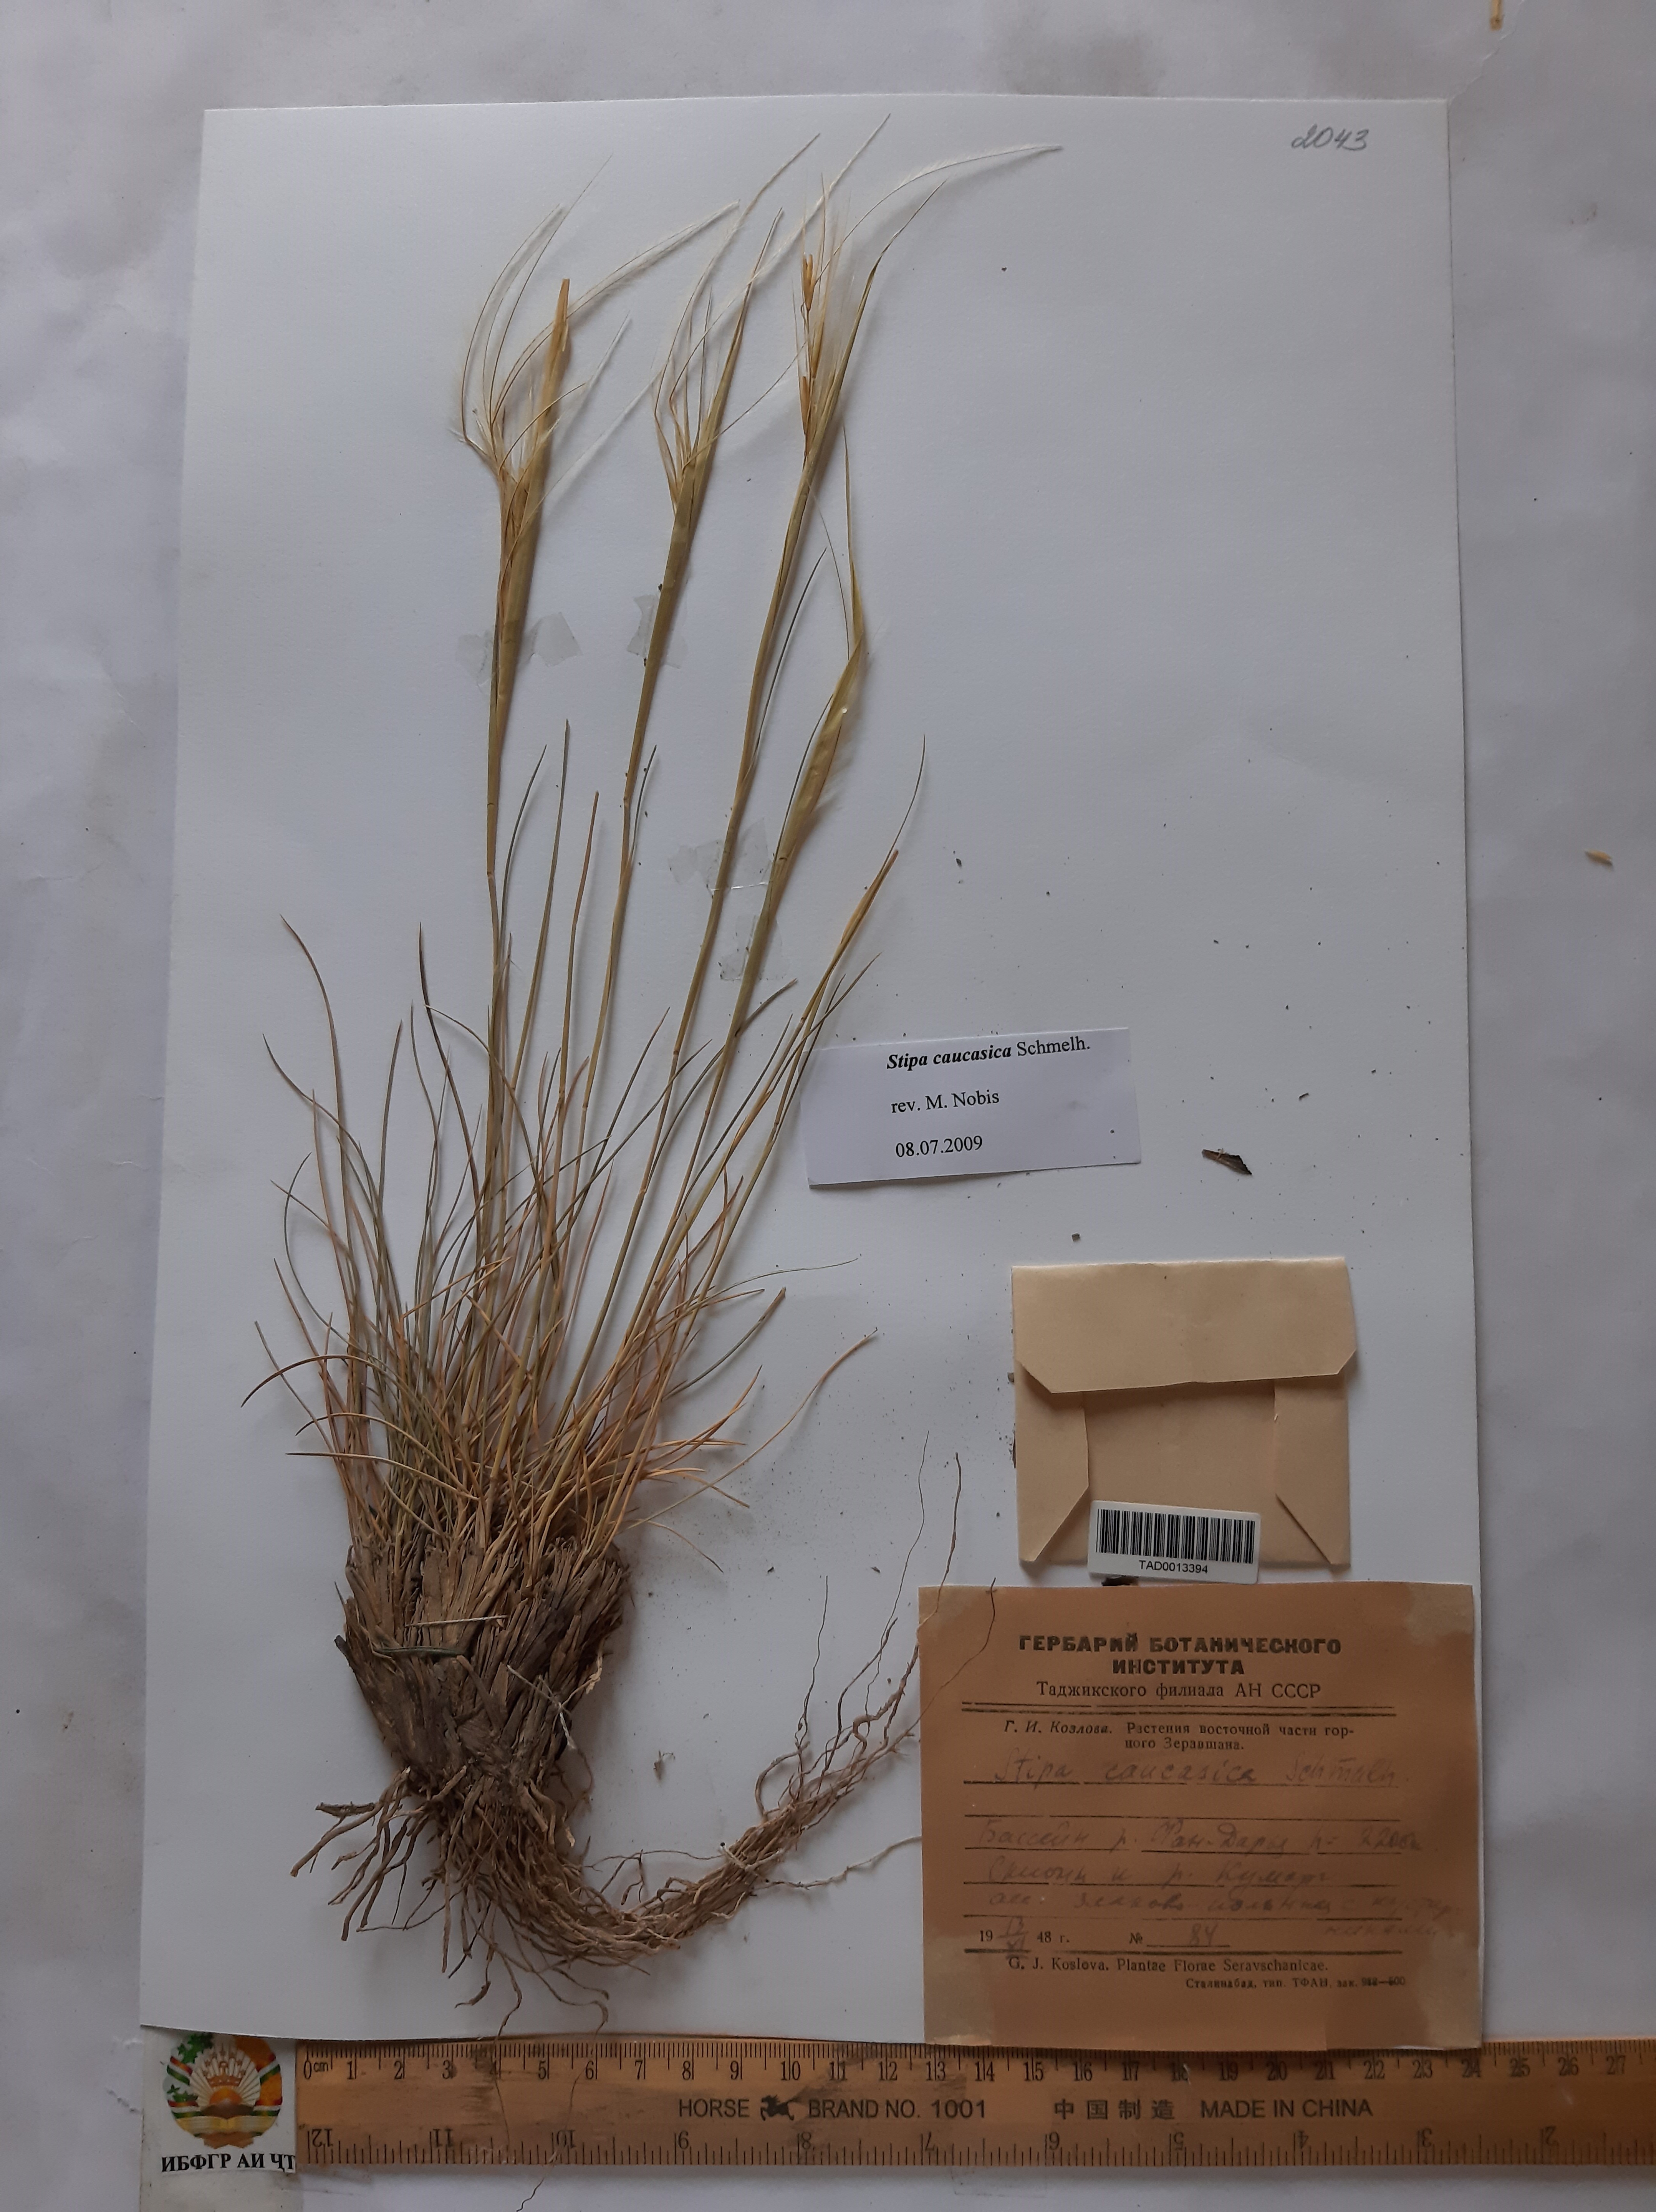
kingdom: Plantae
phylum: Tracheophyta
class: Liliopsida
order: Poales
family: Poaceae
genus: Stipa
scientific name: Stipa caucasica
